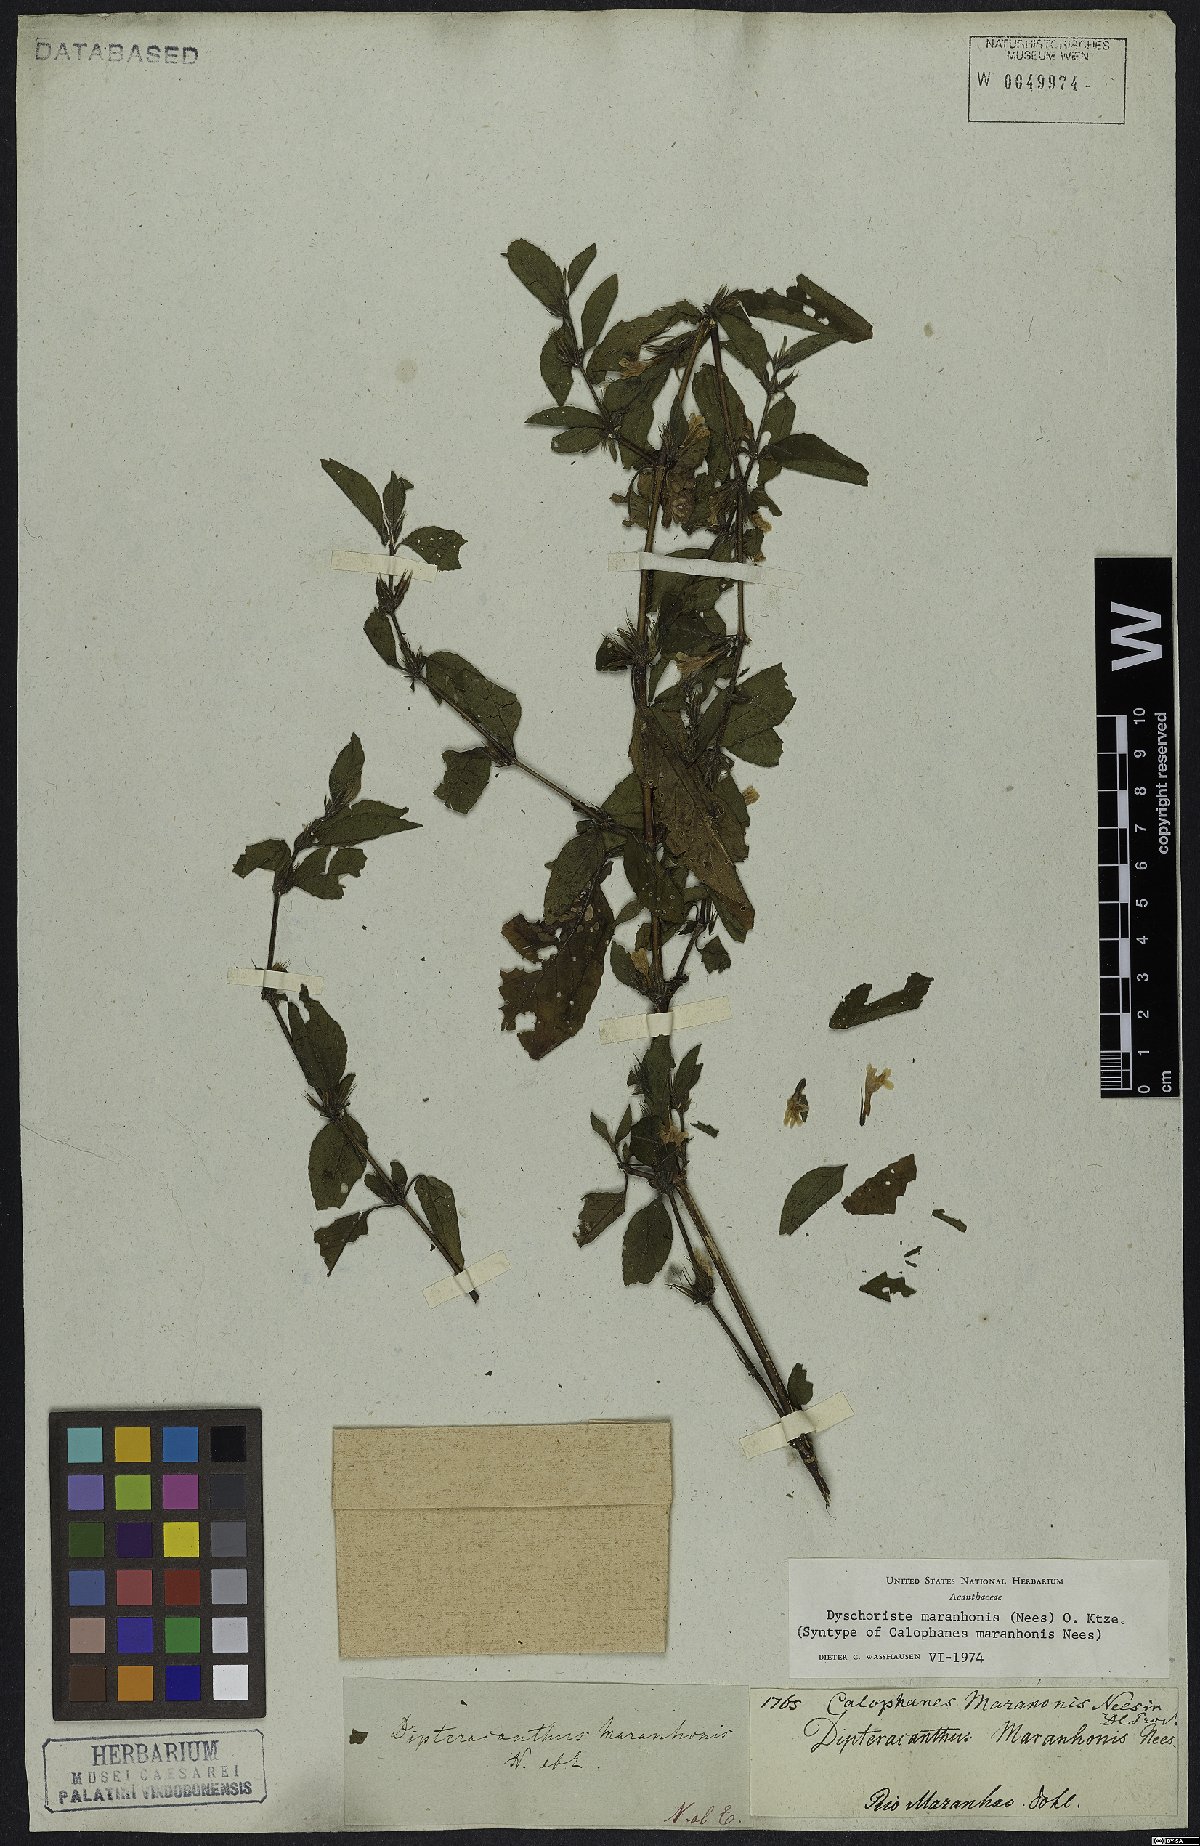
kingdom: Plantae
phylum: Tracheophyta
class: Magnoliopsida
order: Lamiales
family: Acanthaceae
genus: Dyschoriste
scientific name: Dyschoriste maranhonis
